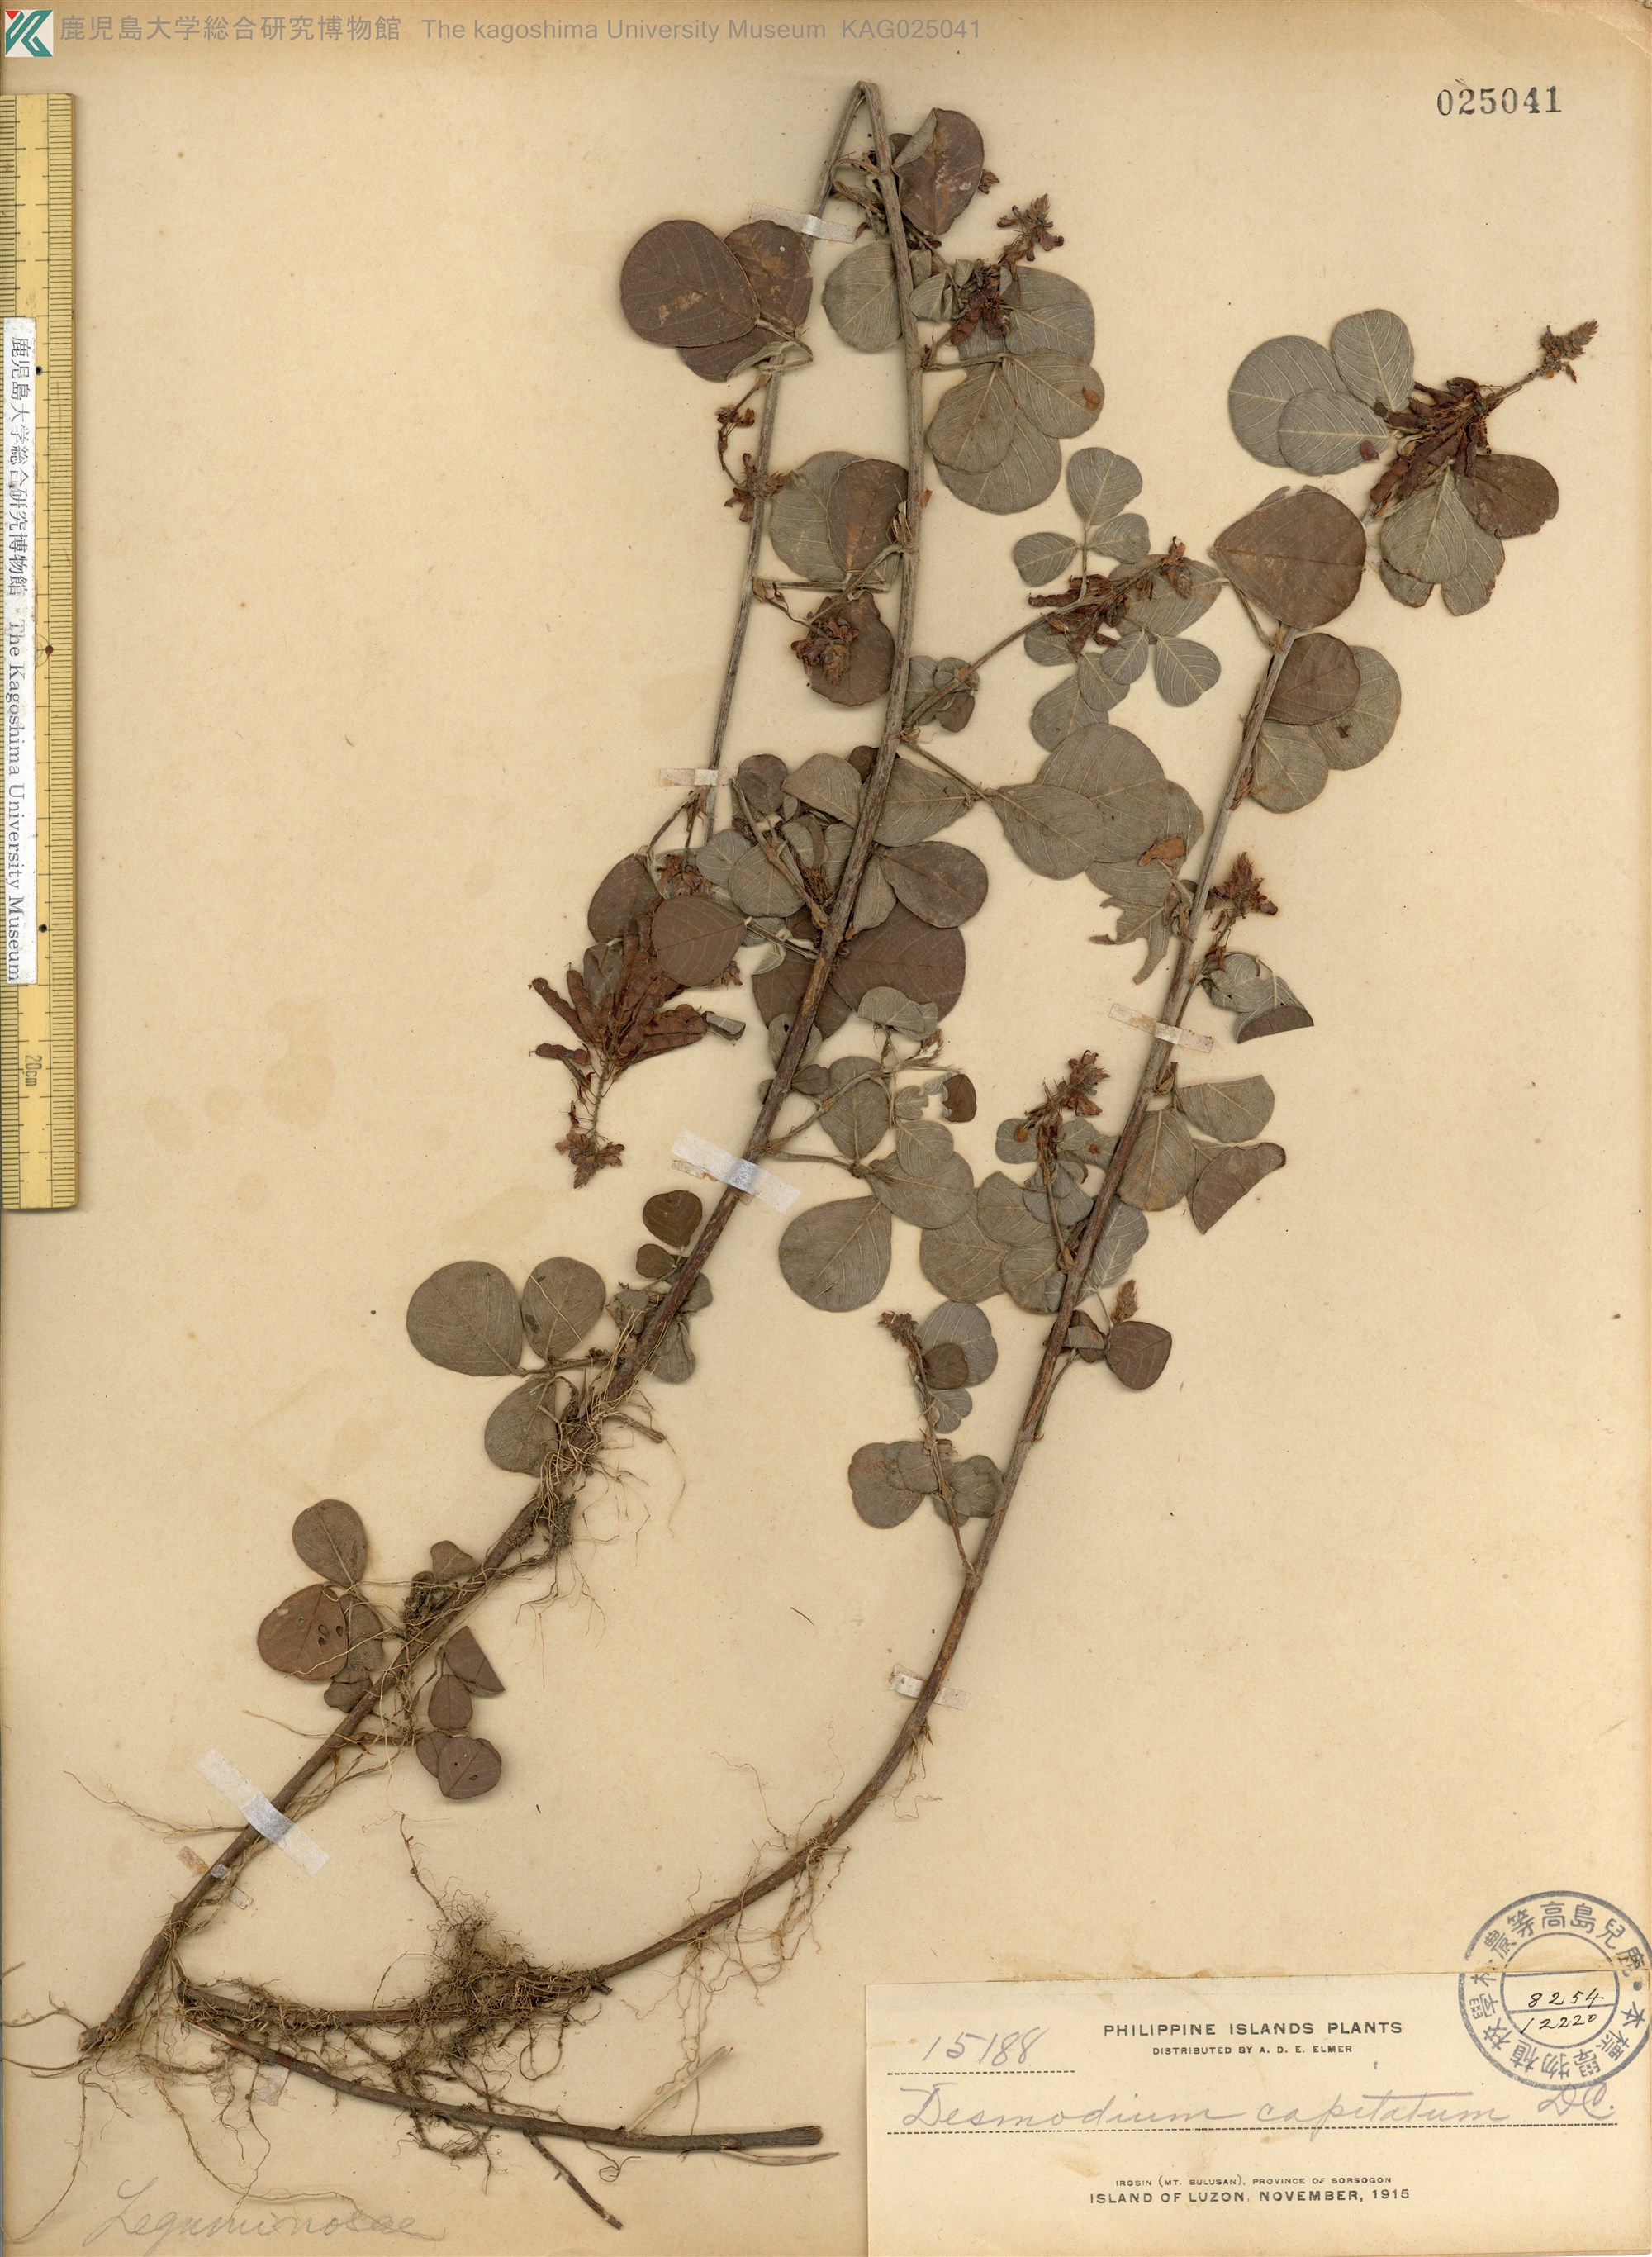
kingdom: Plantae
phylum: Tracheophyta
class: Magnoliopsida
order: Fabales
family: Fabaceae
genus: Grona
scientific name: Grona retroflexa
